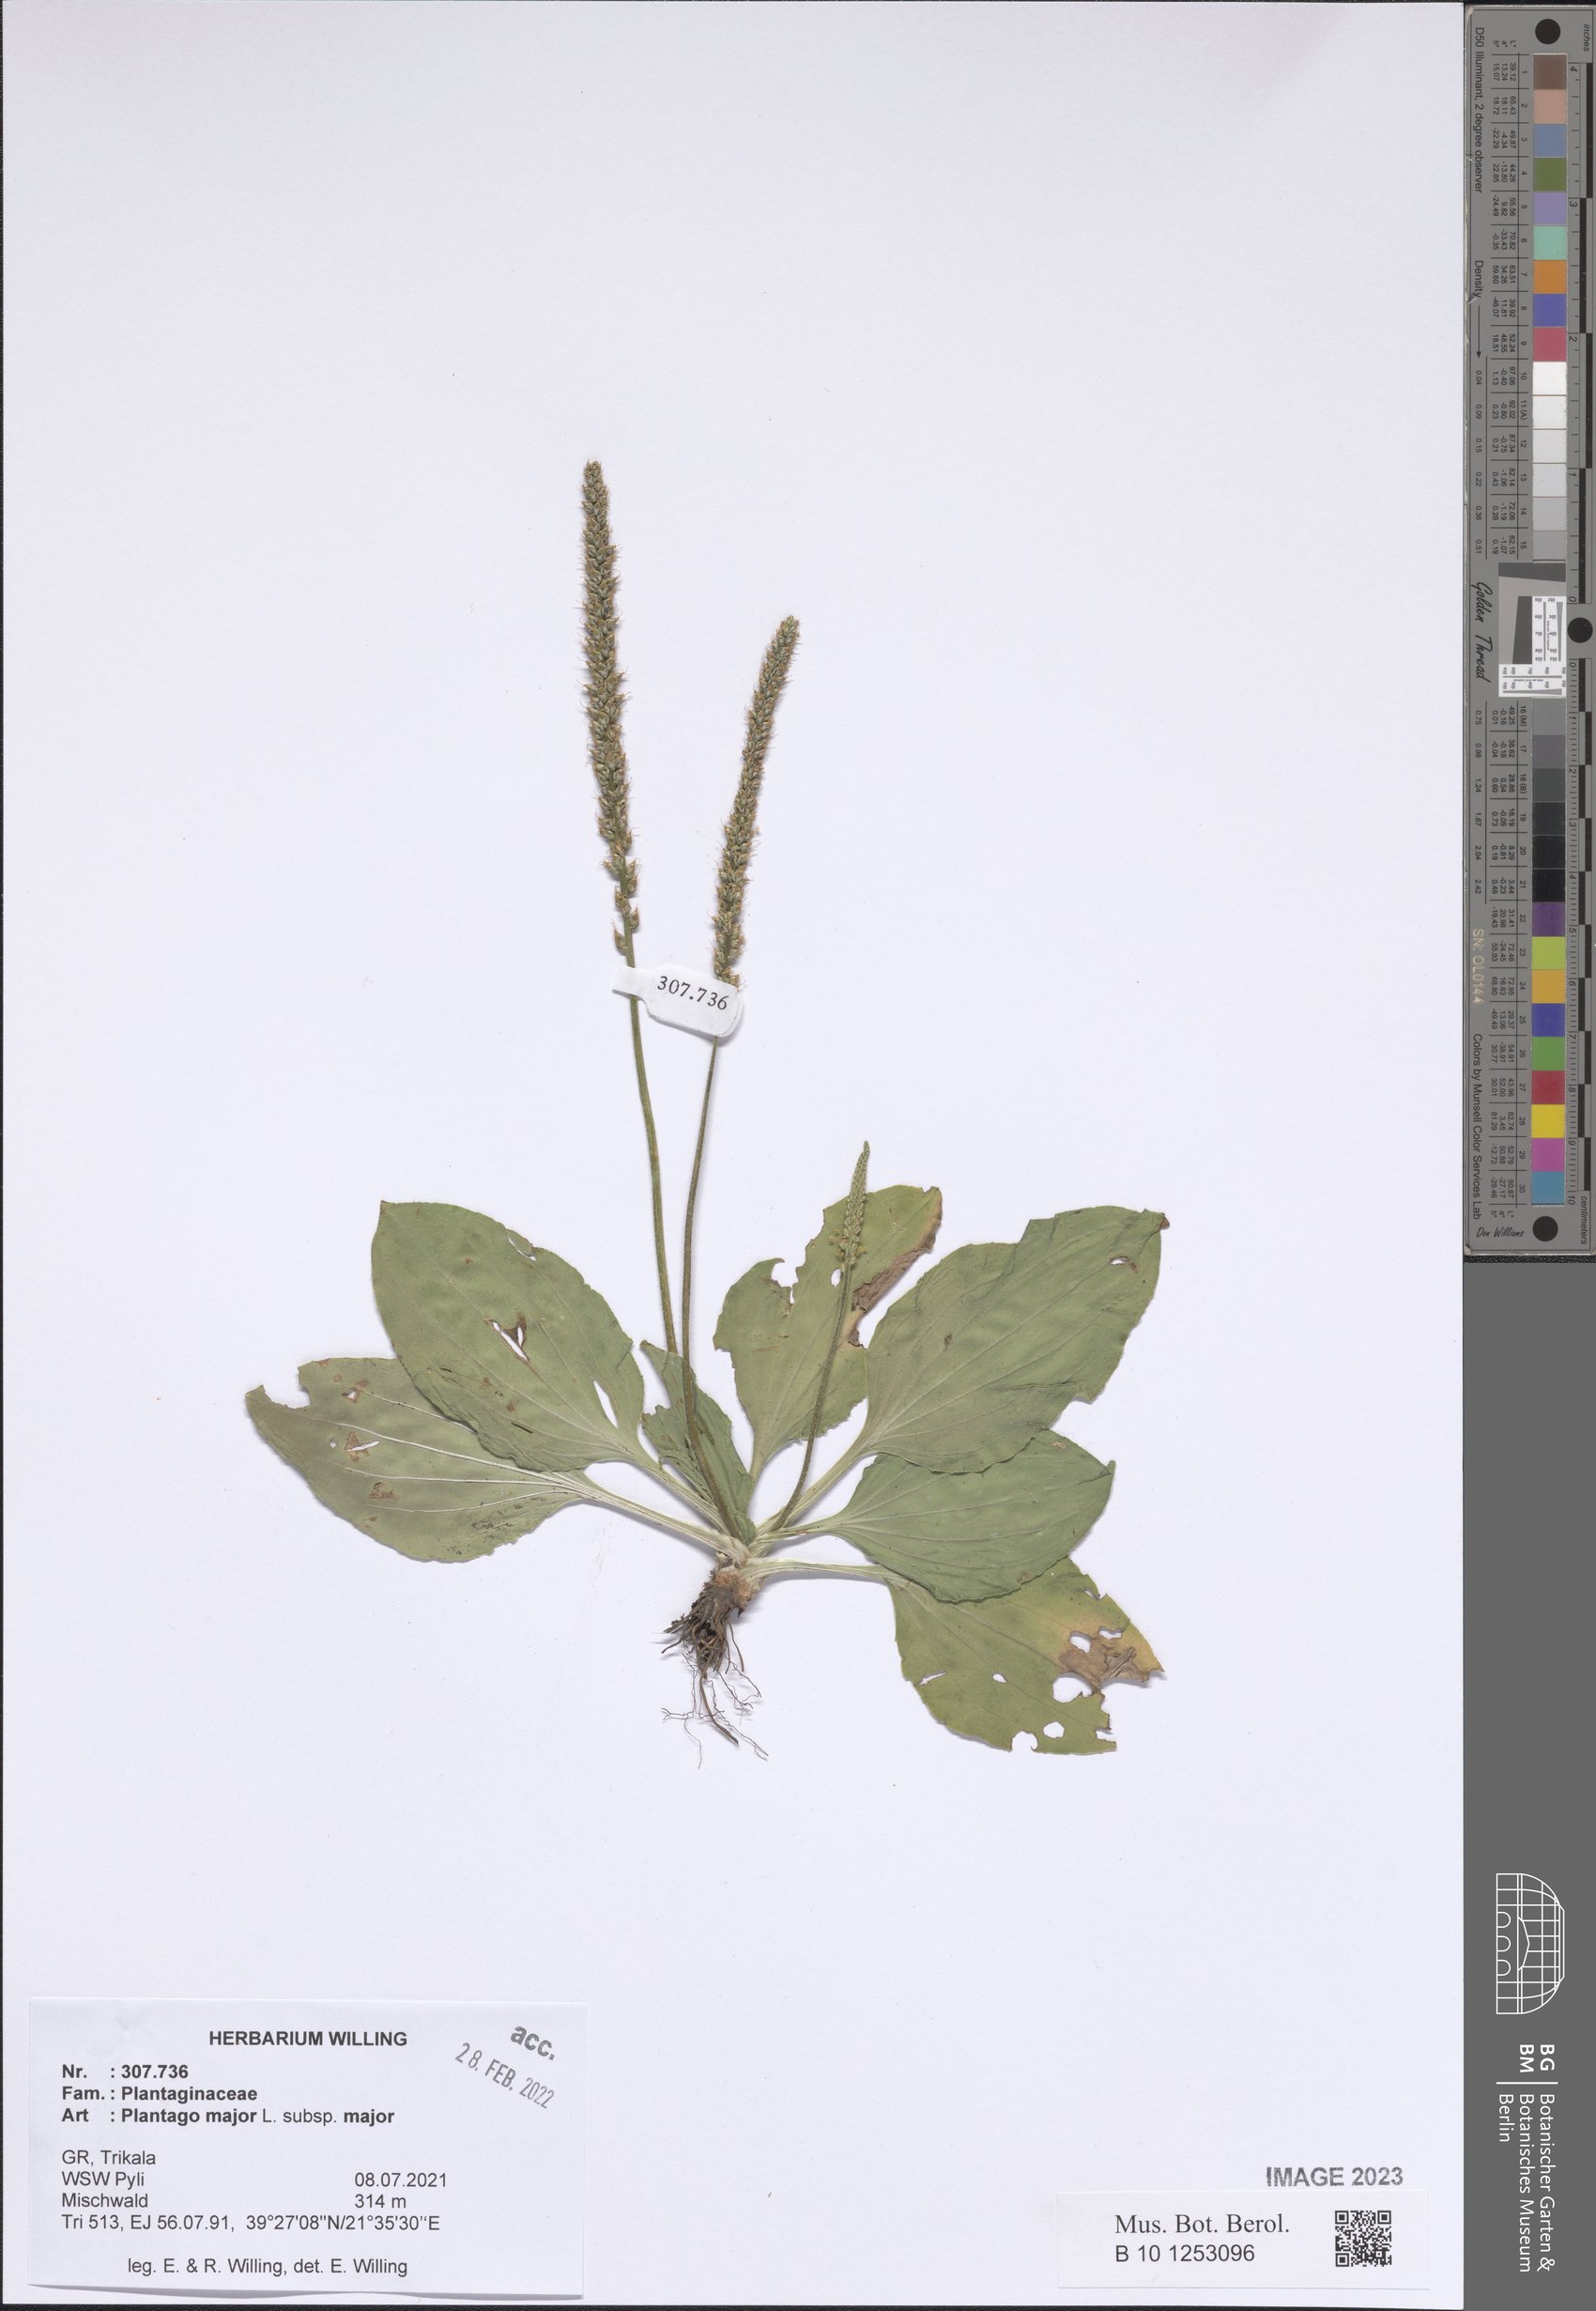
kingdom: Plantae
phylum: Tracheophyta
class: Magnoliopsida
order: Lamiales
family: Plantaginaceae
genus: Plantago
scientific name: Plantago major
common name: Common plantain
